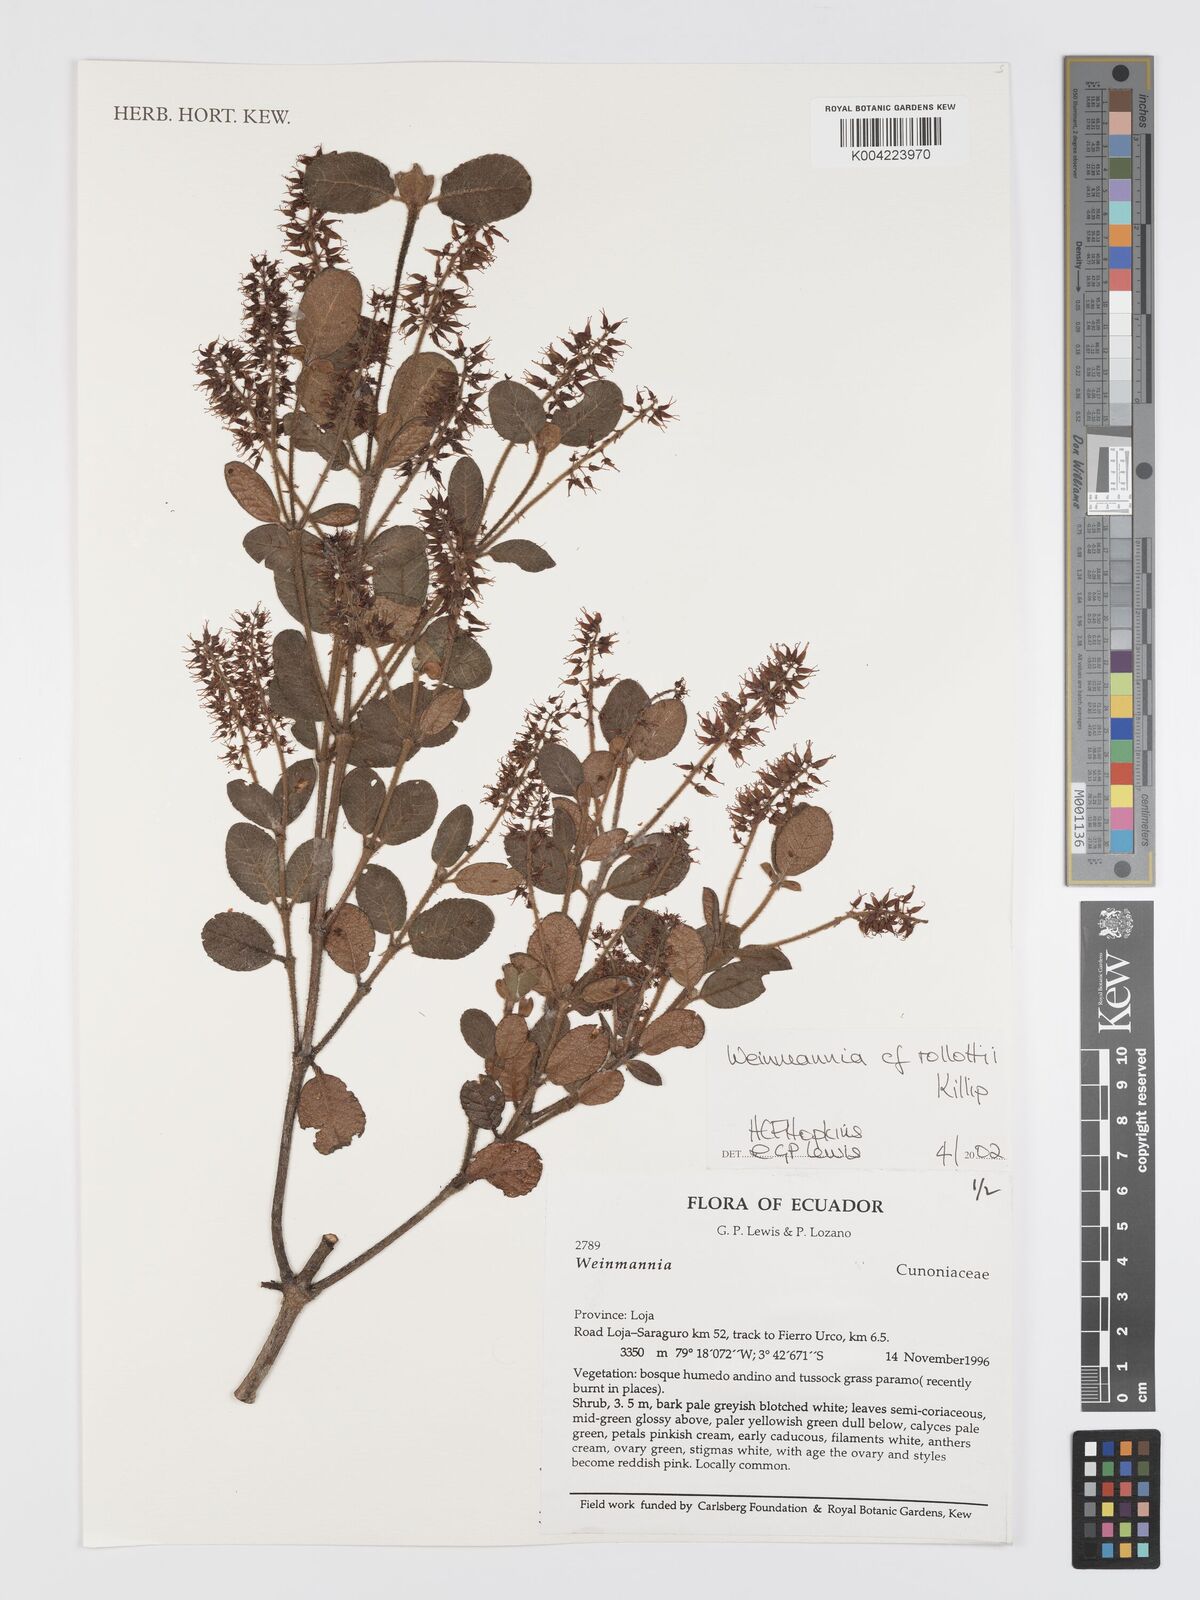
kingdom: Plantae
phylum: Tracheophyta
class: Magnoliopsida
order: Oxalidales
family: Cunoniaceae
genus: Weinmannia
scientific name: Weinmannia rollottii
